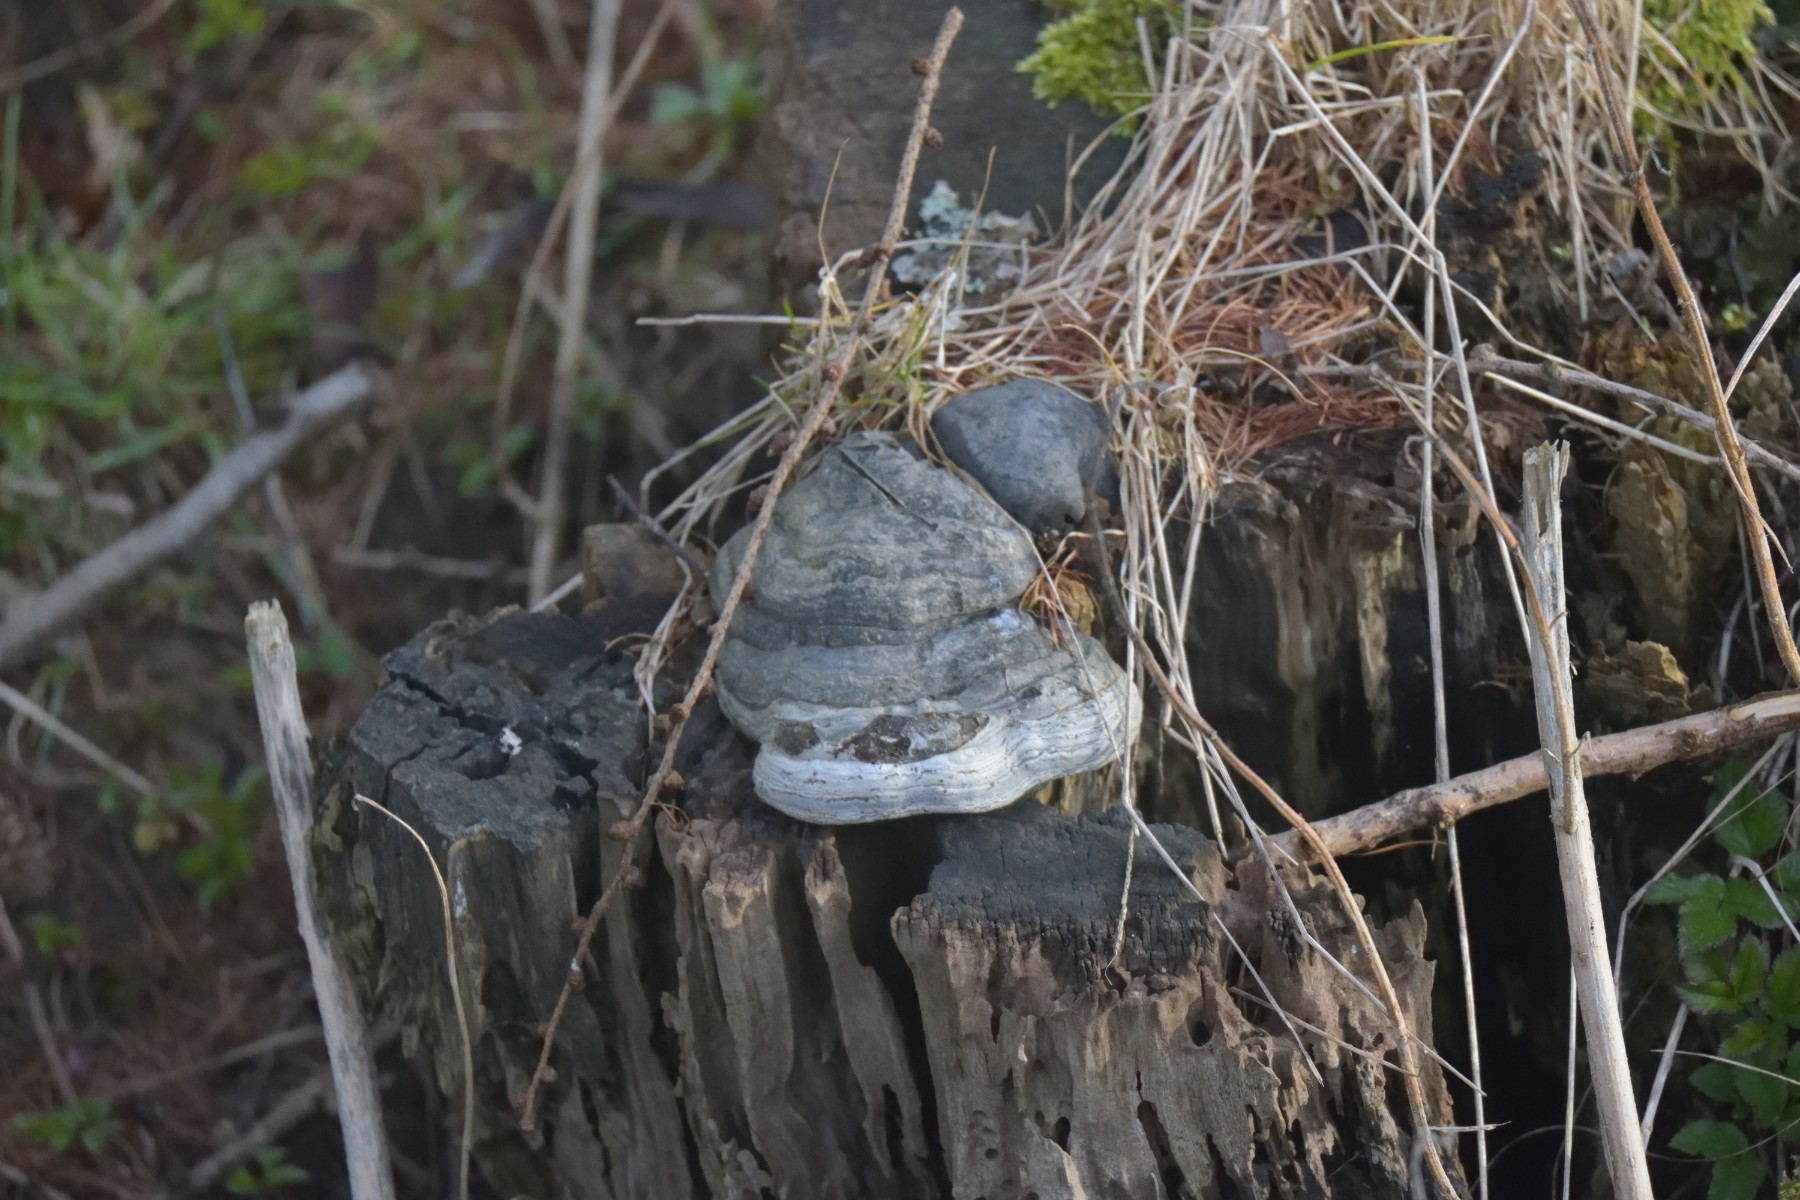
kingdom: Fungi
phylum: Basidiomycota
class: Agaricomycetes
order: Polyporales
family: Polyporaceae
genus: Fomes
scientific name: Fomes fomentarius
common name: tøndersvamp
